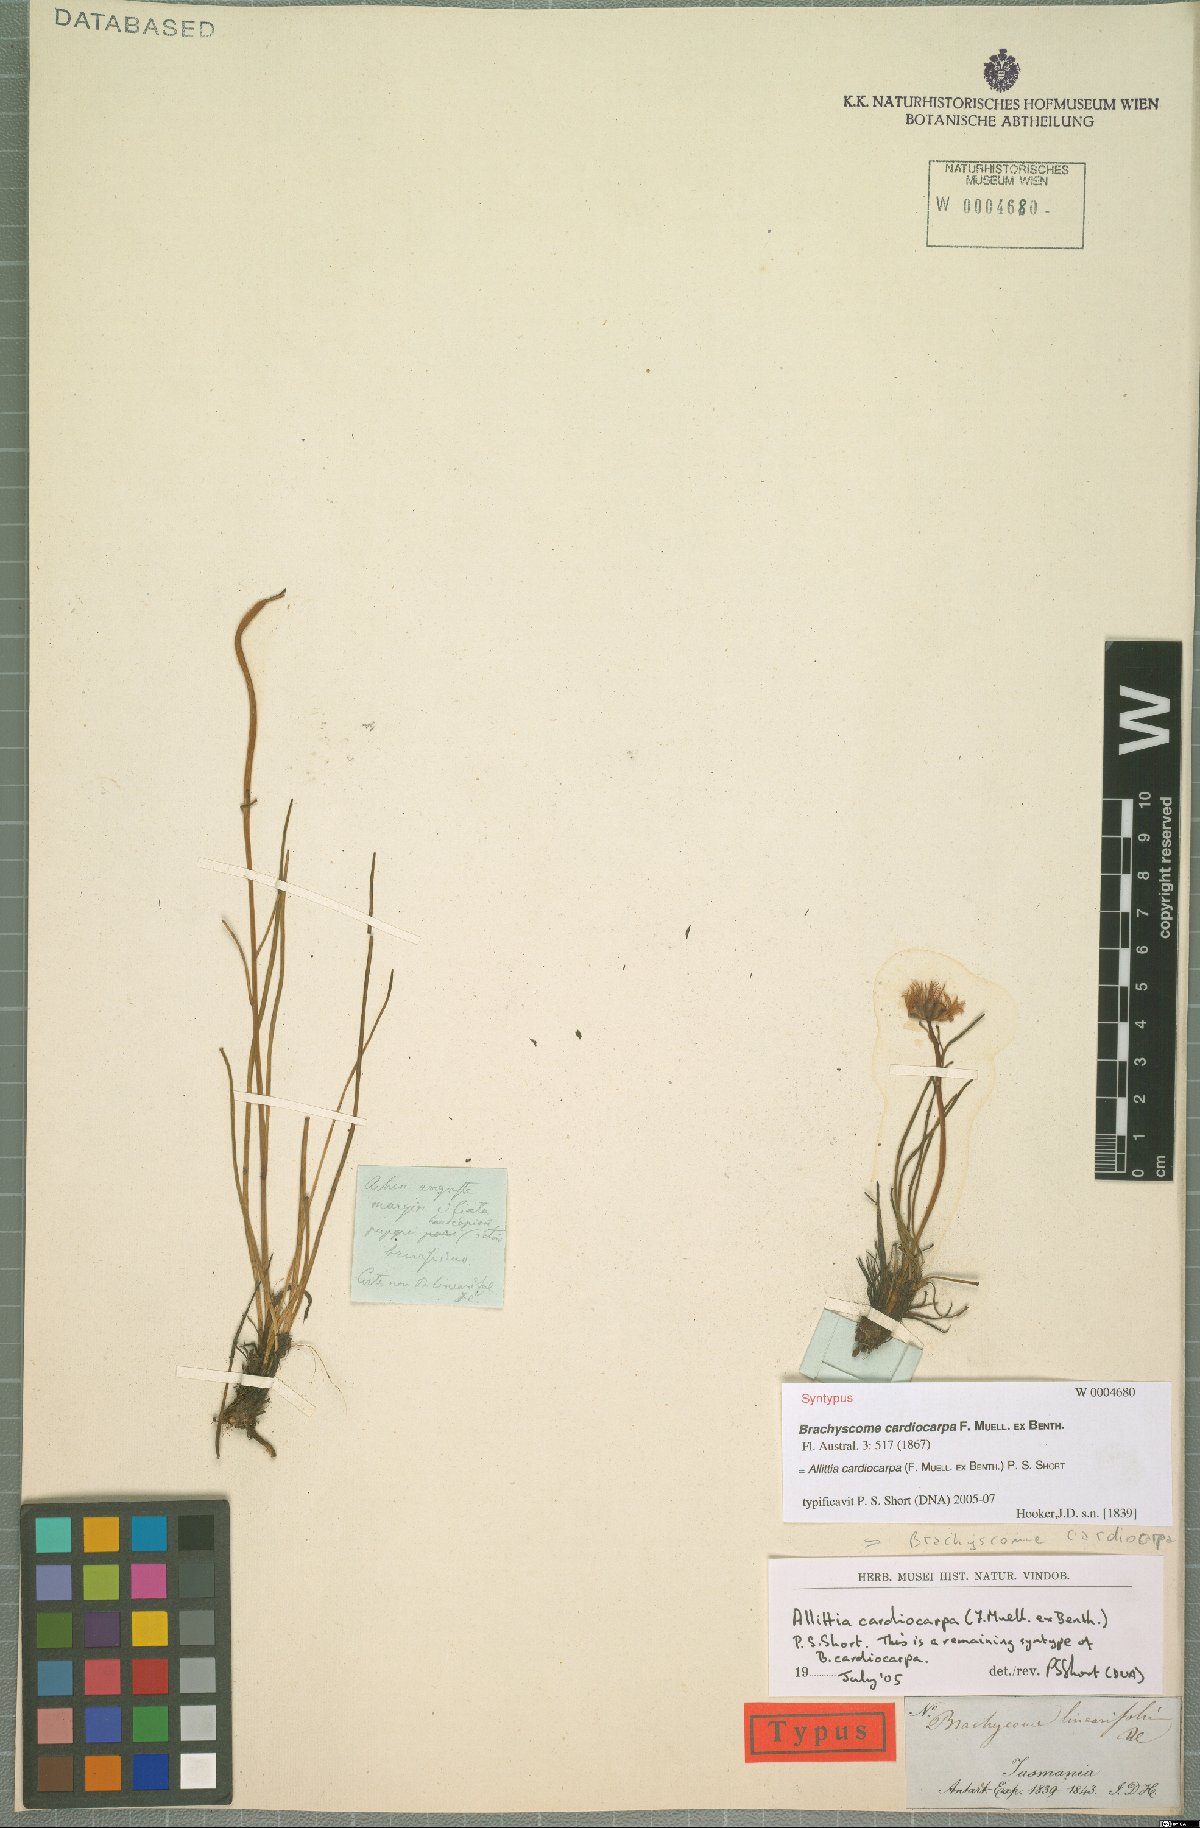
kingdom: Plantae
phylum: Tracheophyta
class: Magnoliopsida
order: Asterales
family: Asteraceae
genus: Allittia
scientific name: Allittia cardiocarpa
